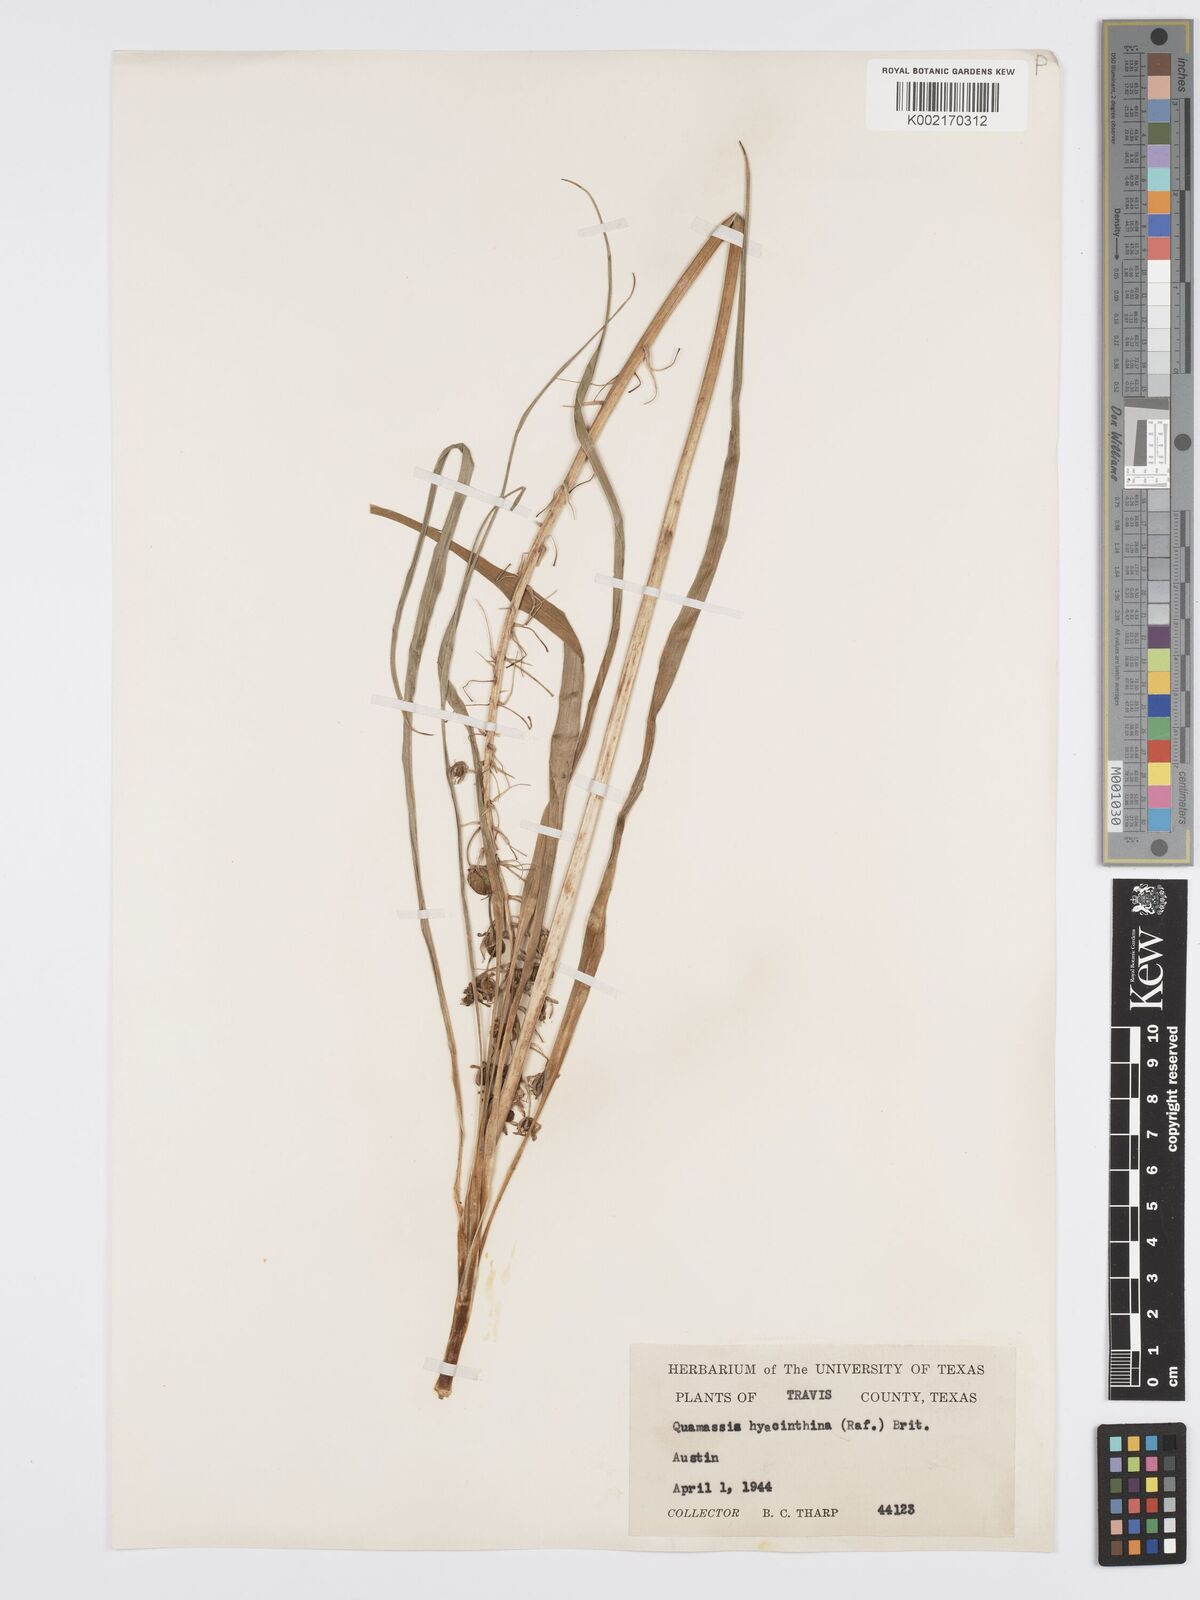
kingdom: Plantae
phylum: Tracheophyta
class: Liliopsida
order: Asparagales
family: Asparagaceae
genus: Camassia
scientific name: Camassia scilloides
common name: Wild hyacinth
